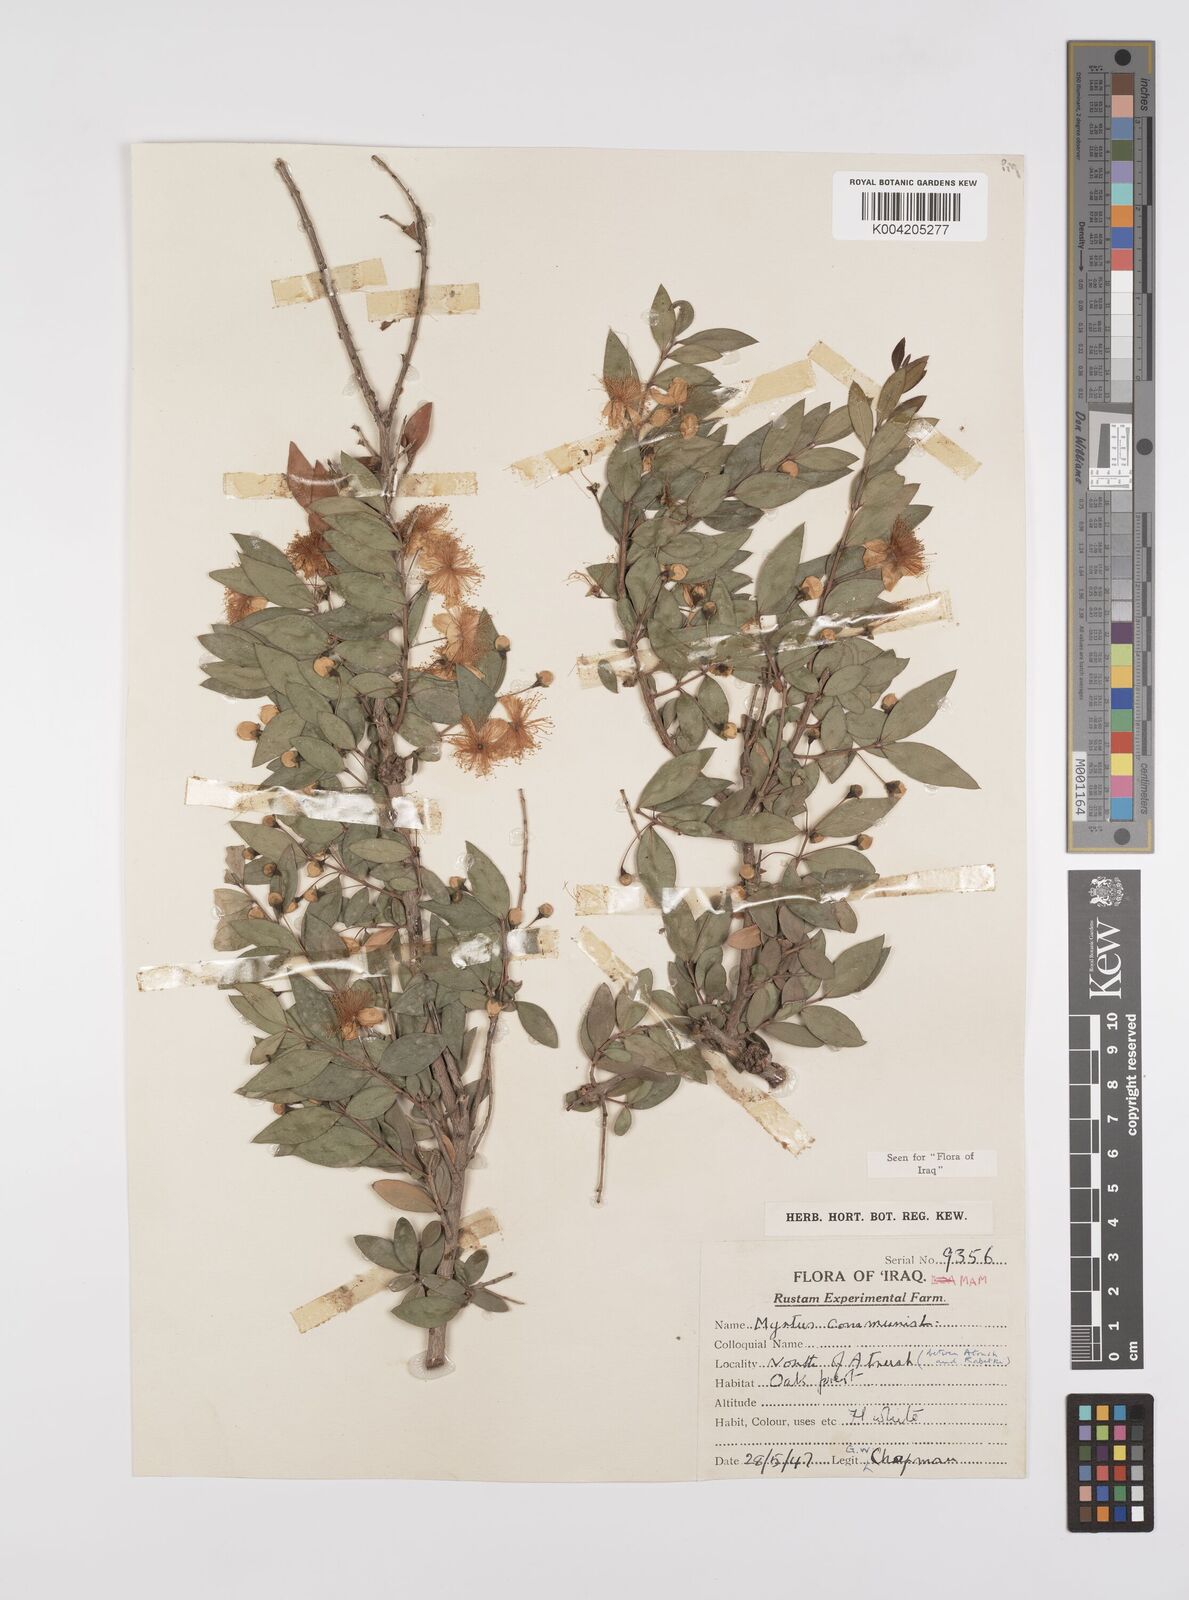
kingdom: Plantae
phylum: Tracheophyta
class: Magnoliopsida
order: Myrtales
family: Myrtaceae
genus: Myrtus
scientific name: Myrtus communis
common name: Myrtle
